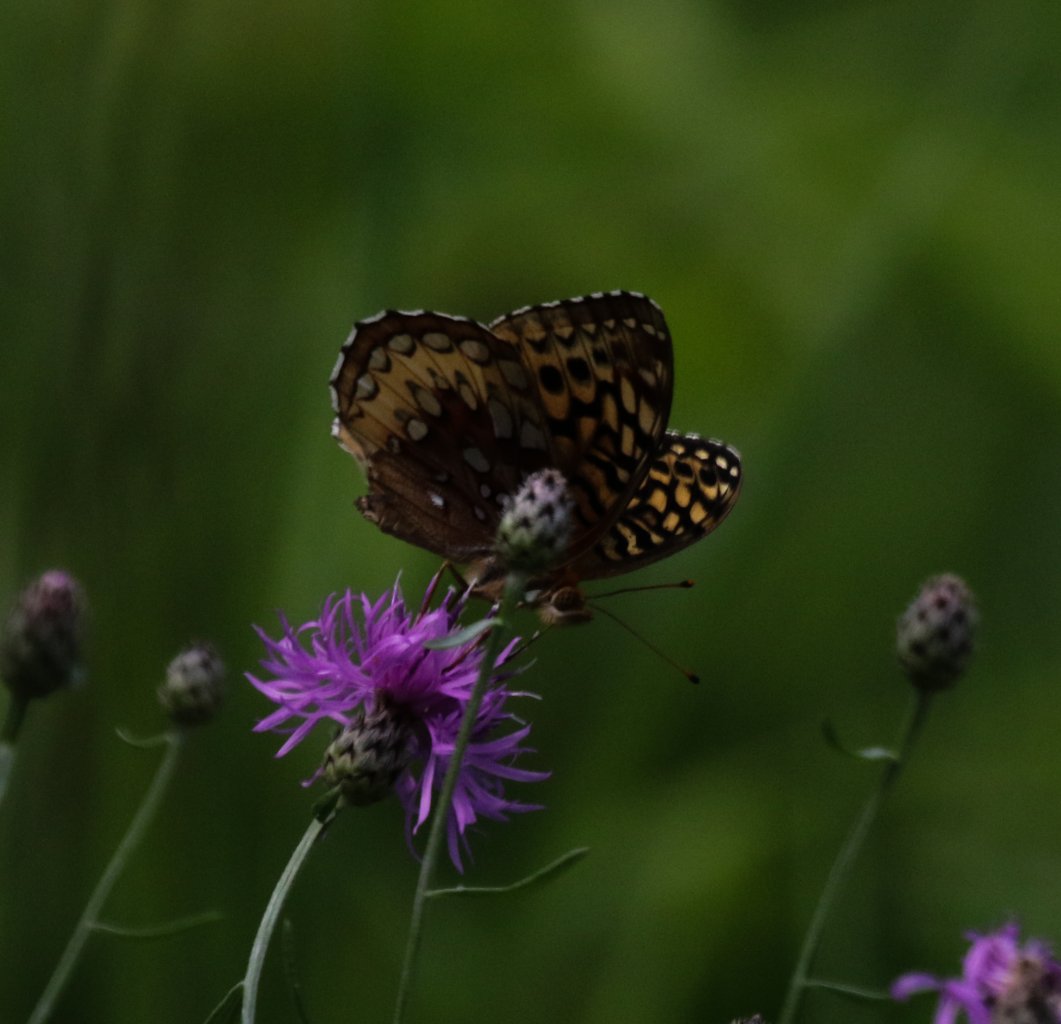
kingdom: Animalia
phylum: Arthropoda
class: Insecta
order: Lepidoptera
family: Nymphalidae
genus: Speyeria
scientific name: Speyeria cybele
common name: Great Spangled Fritillary
